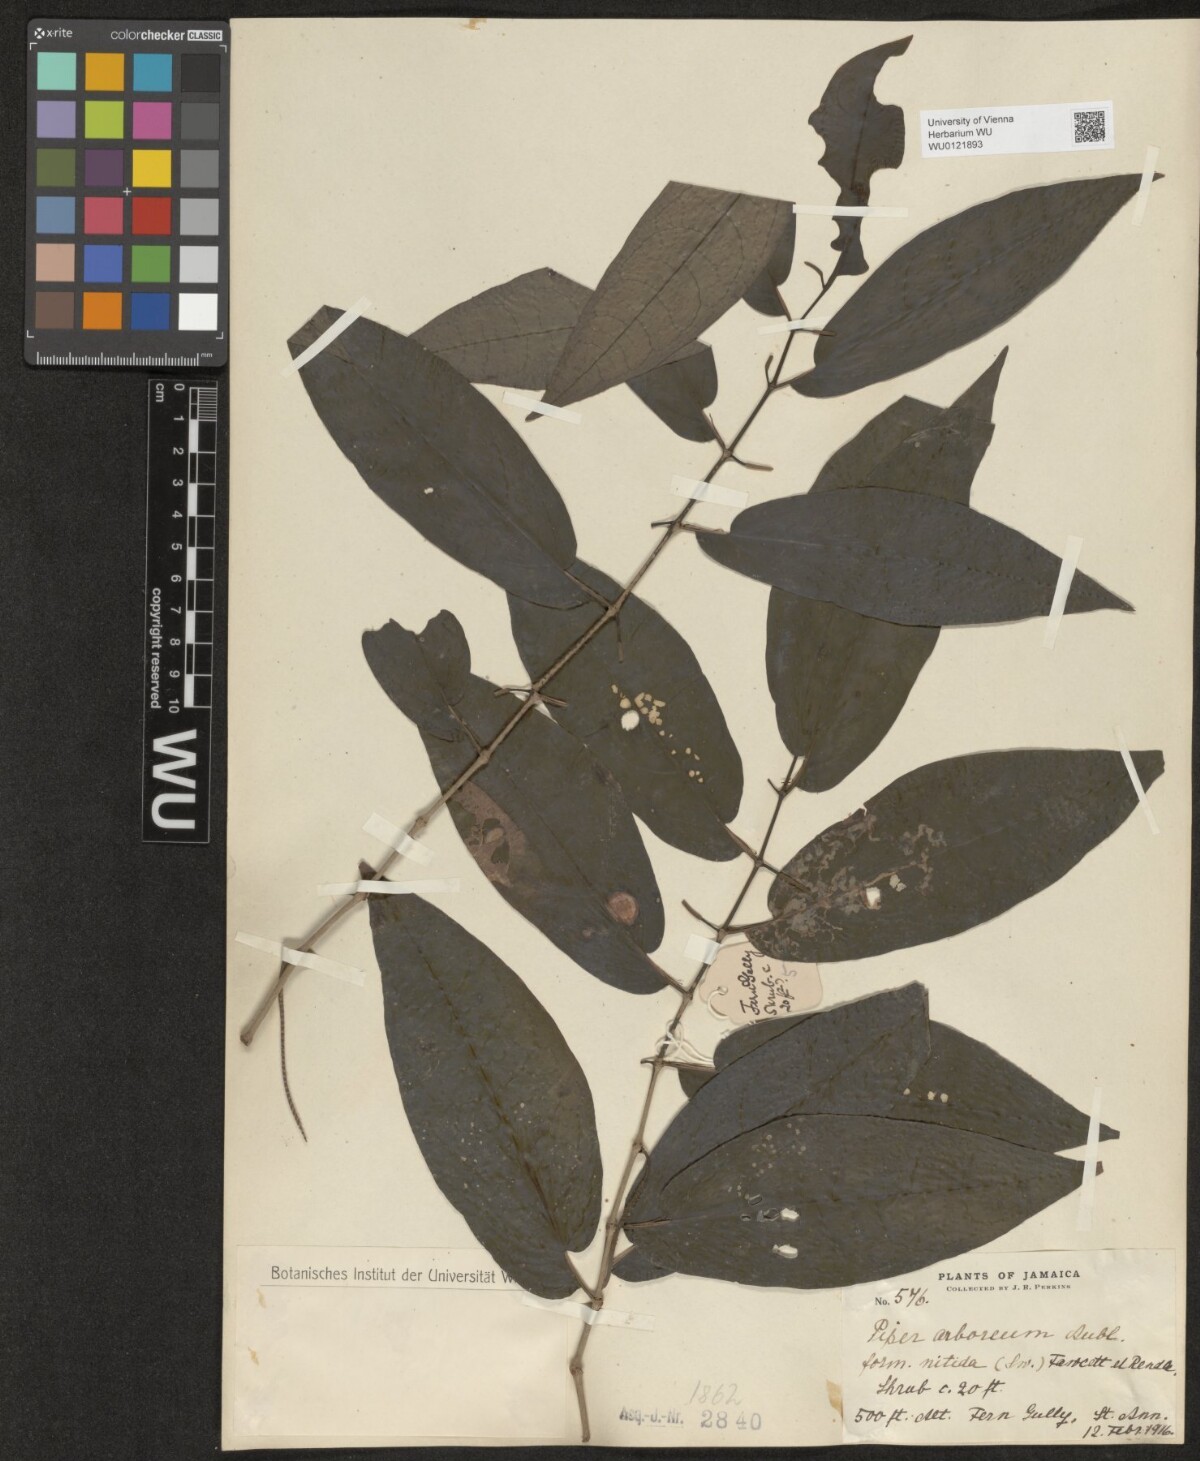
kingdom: Plantae
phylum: Tracheophyta
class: Magnoliopsida
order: Piperales
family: Piperaceae
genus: Piper
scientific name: Piper arboreum
